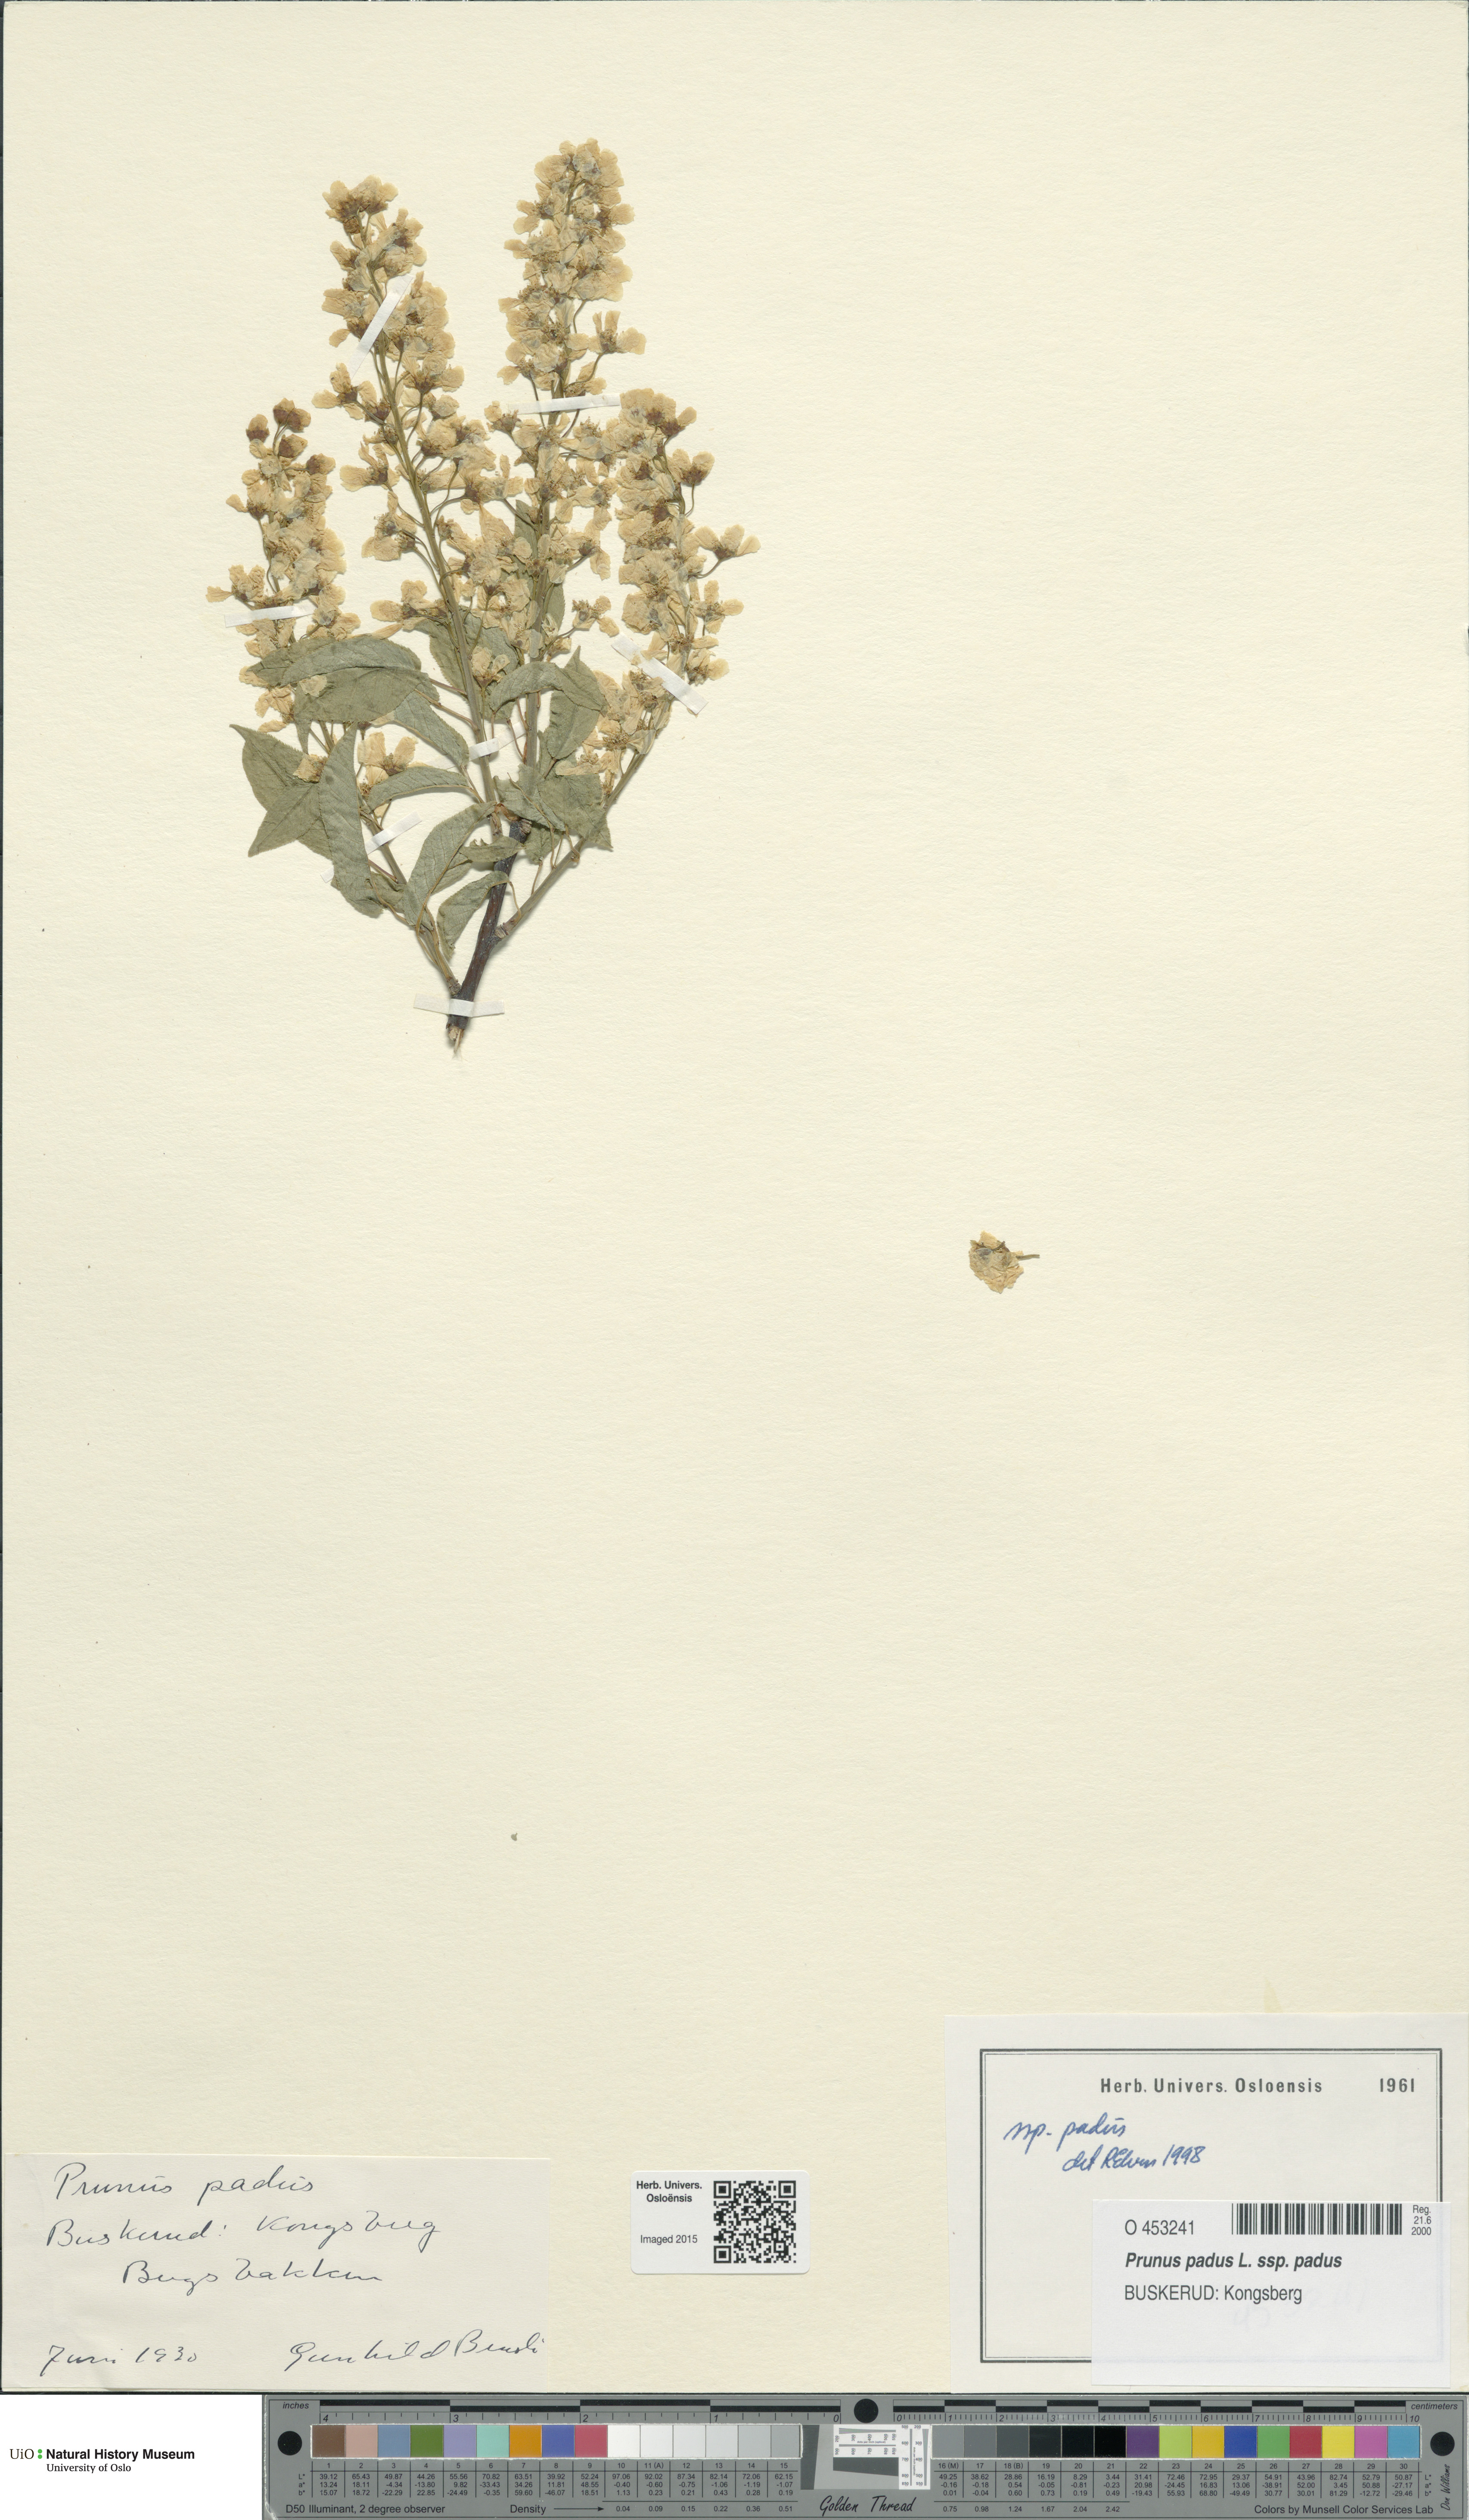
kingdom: Plantae
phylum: Tracheophyta
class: Magnoliopsida
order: Rosales
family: Rosaceae
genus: Prunus
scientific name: Prunus padus
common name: Bird cherry
